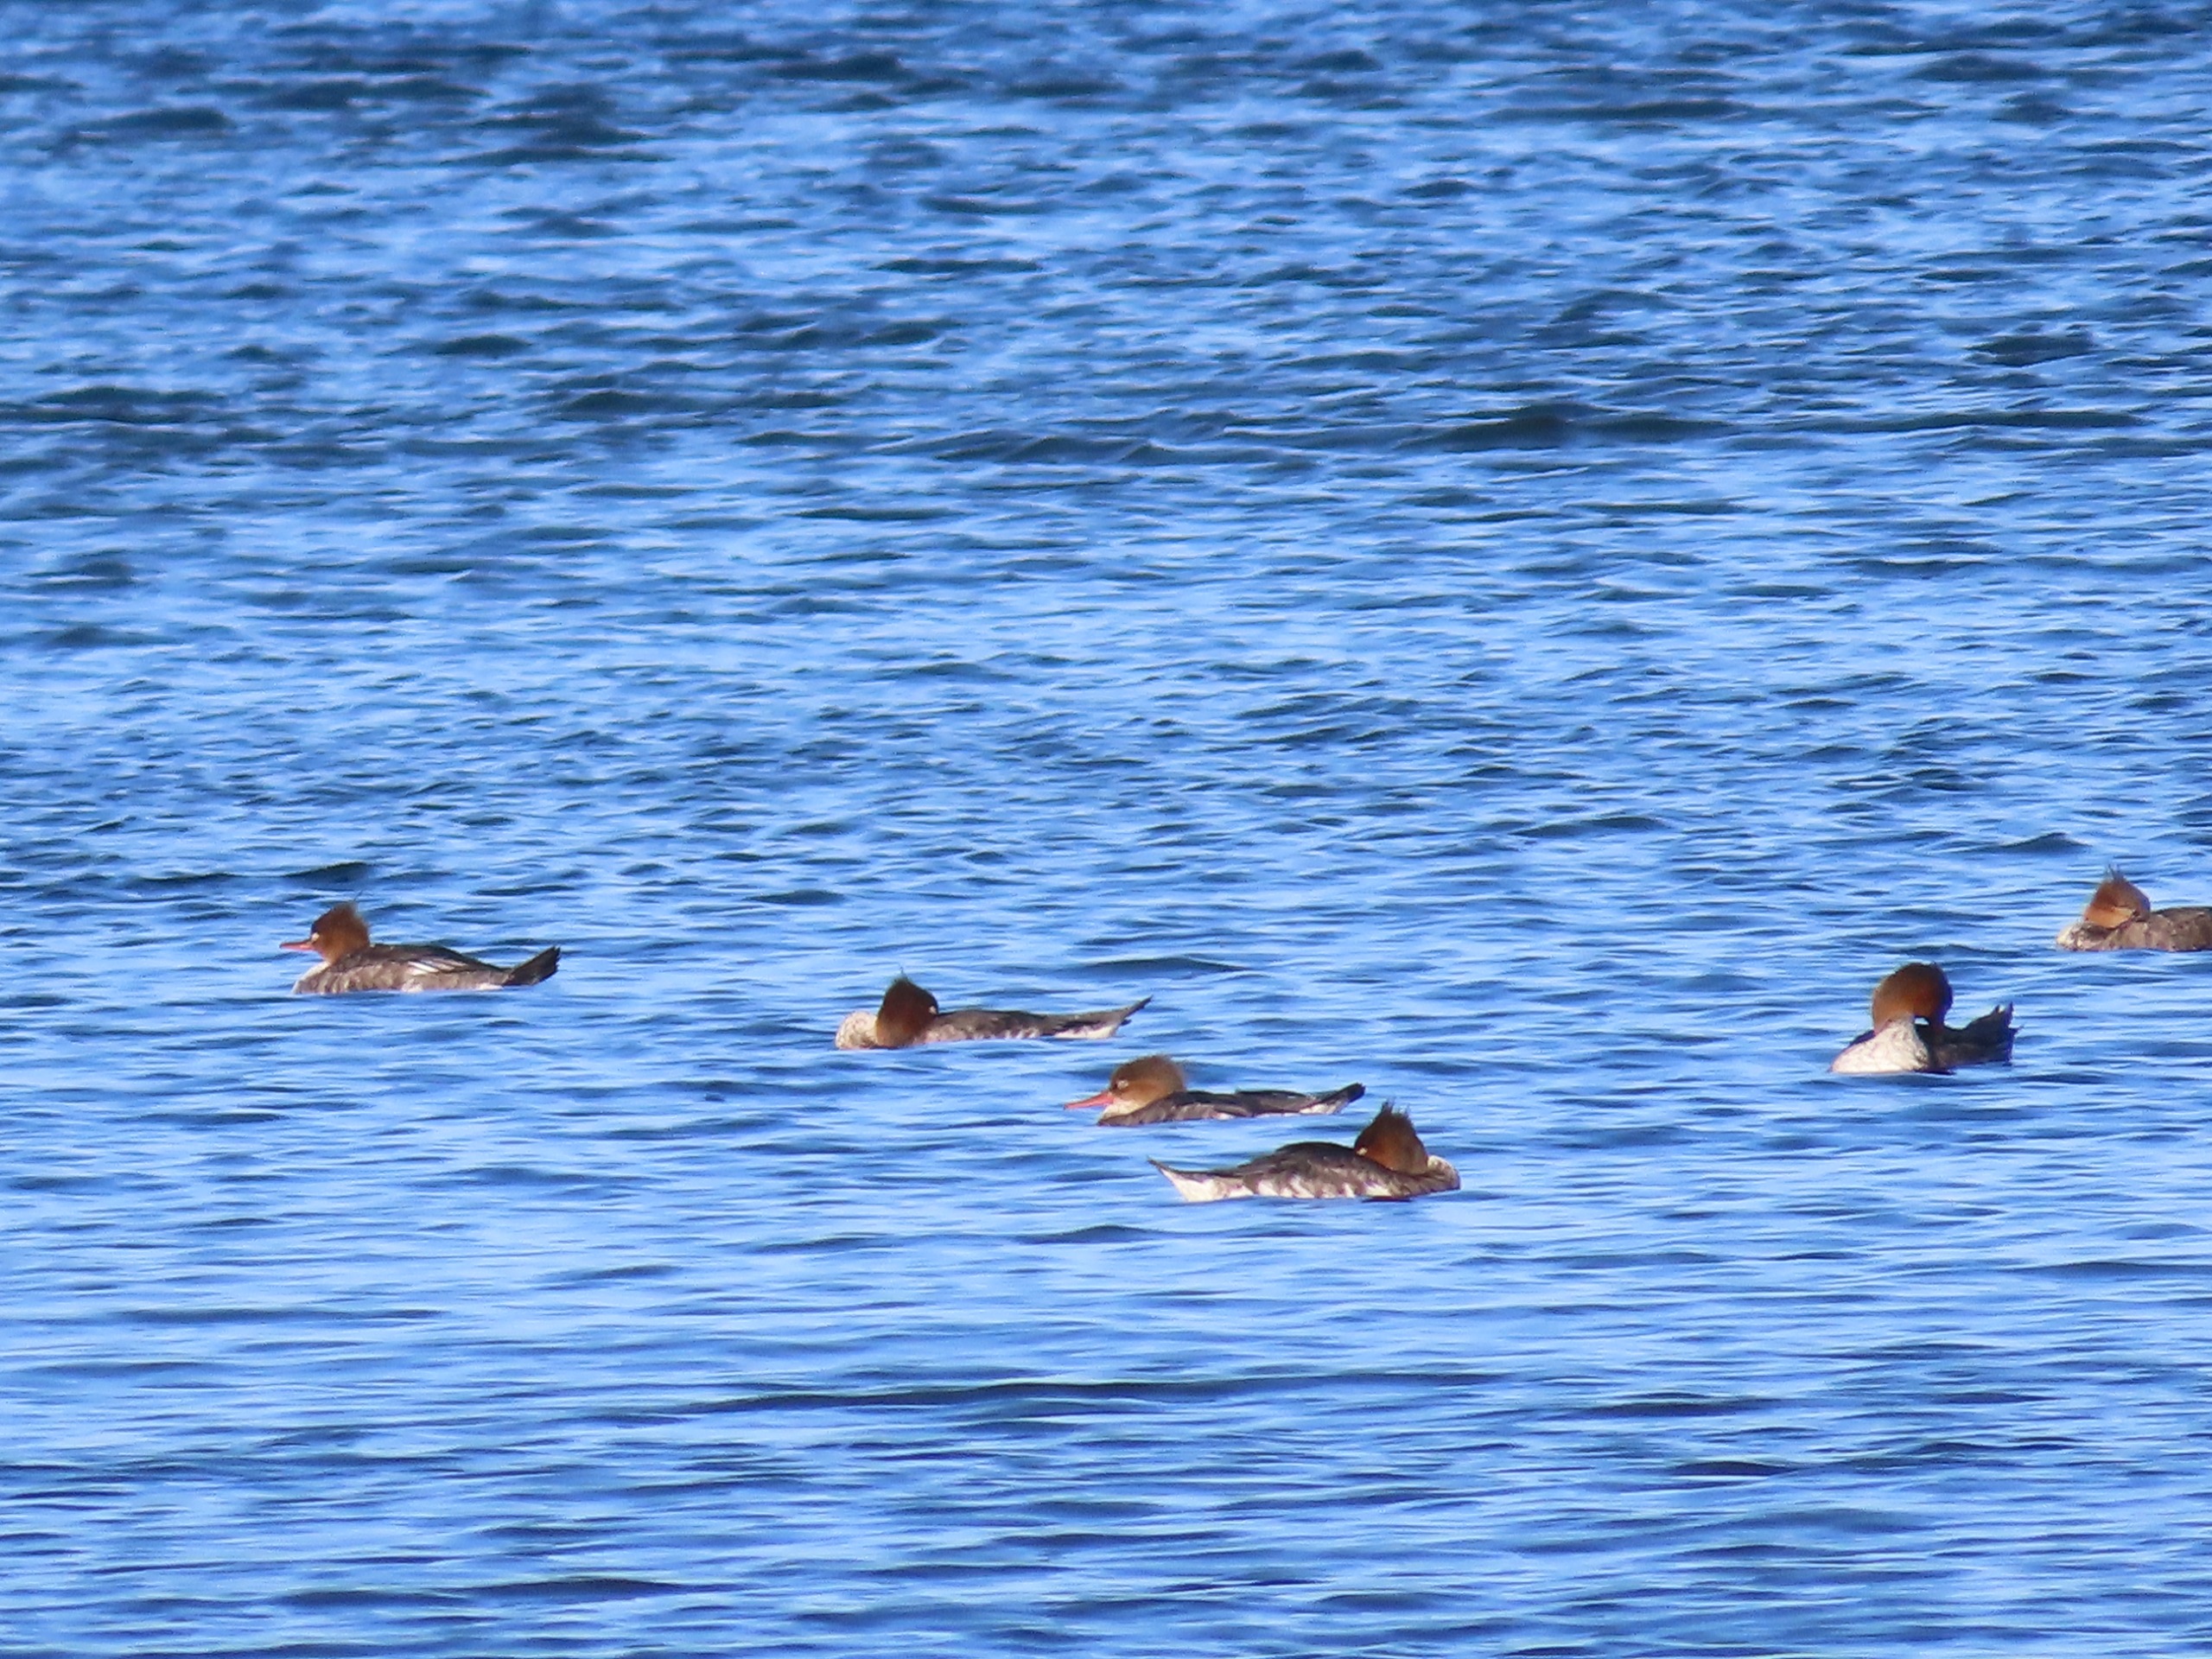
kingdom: Animalia
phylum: Chordata
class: Aves
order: Anseriformes
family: Anatidae
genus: Mergus
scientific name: Mergus serrator
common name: Toppet skallesluger
